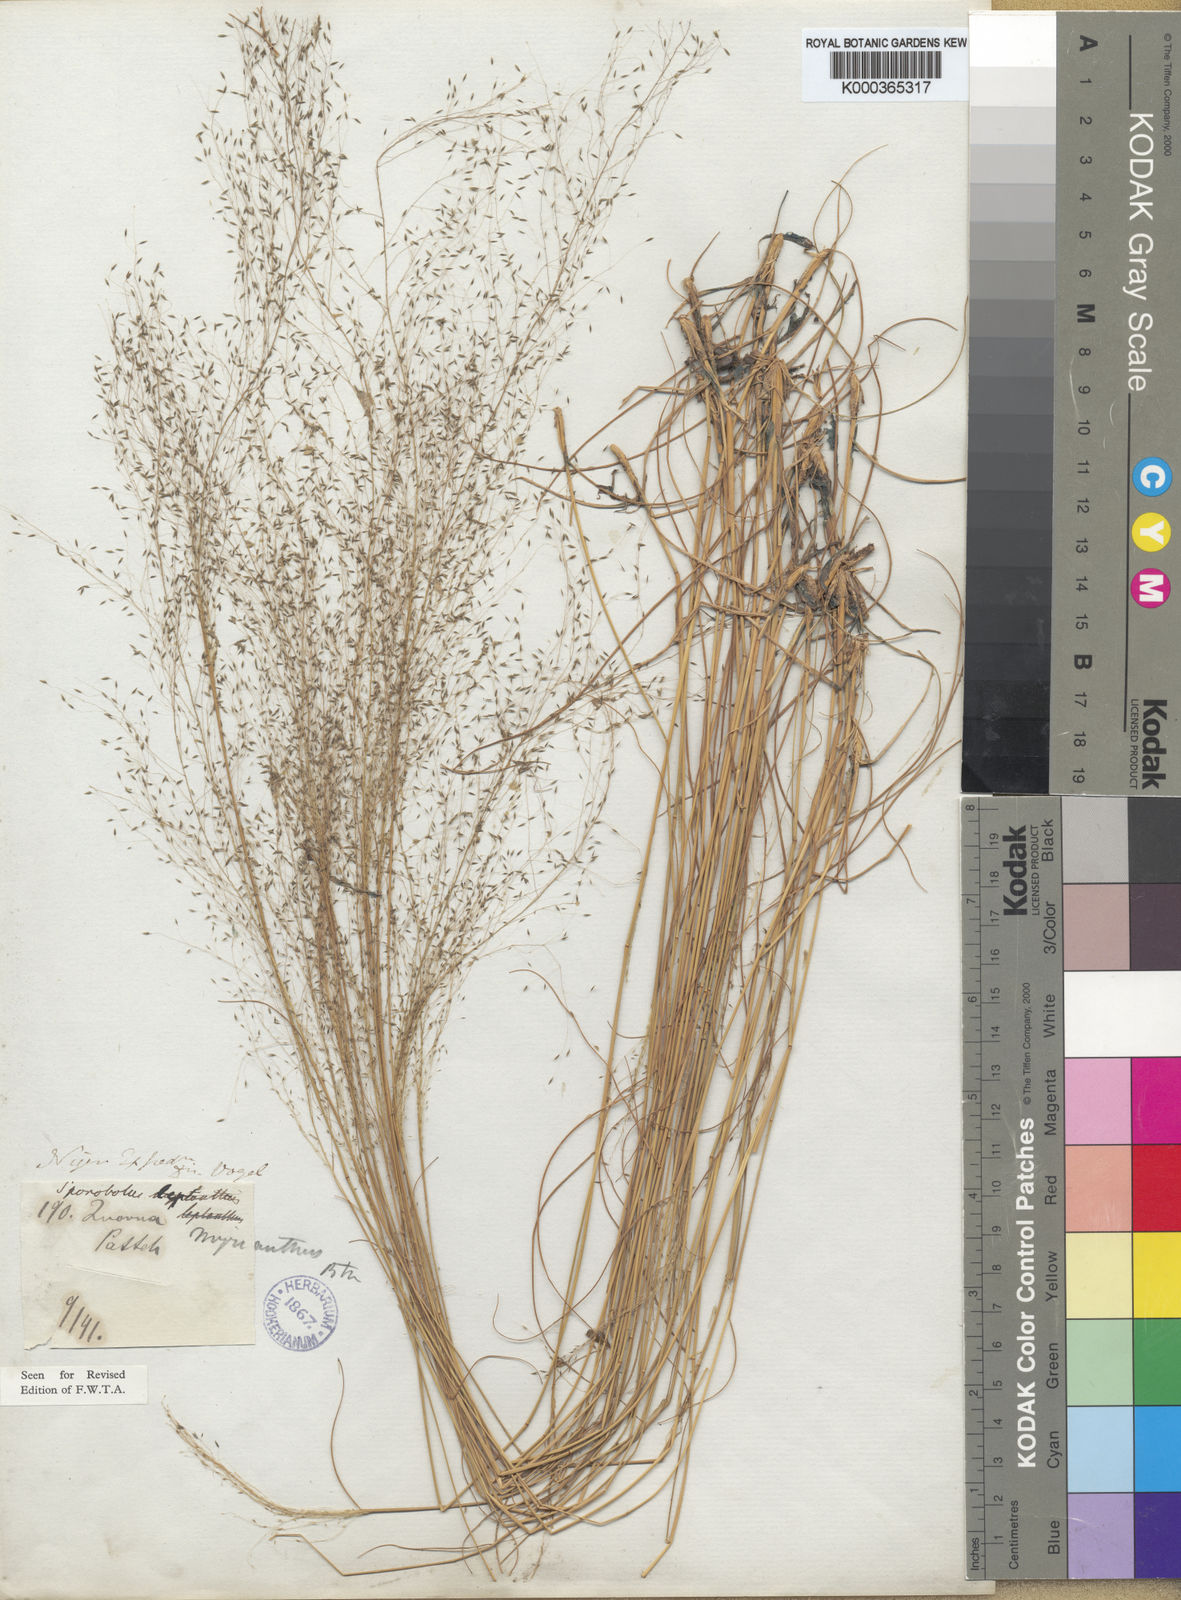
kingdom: Plantae
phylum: Tracheophyta
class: Liliopsida
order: Poales
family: Poaceae
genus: Sporobolus
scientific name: Sporobolus myrianthus
